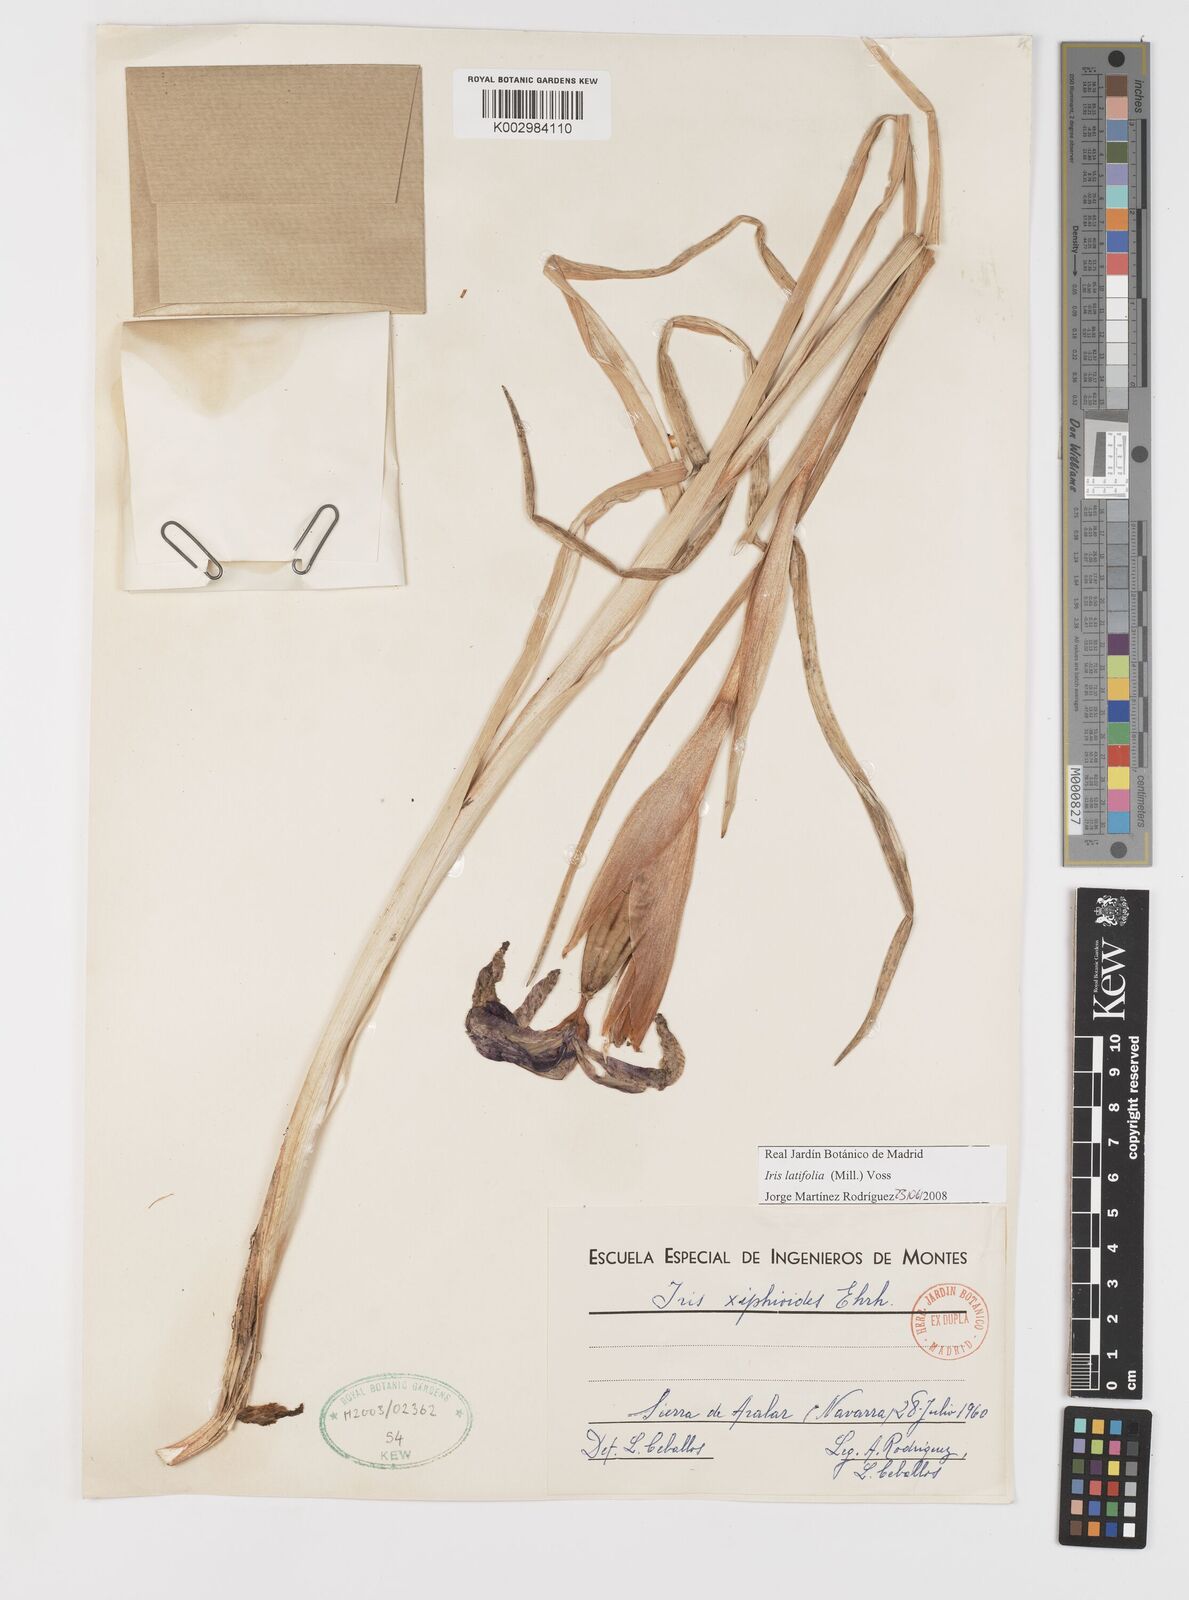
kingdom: Plantae
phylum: Tracheophyta
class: Liliopsida
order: Asparagales
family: Iridaceae
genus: Iris
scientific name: Iris jacquinii
